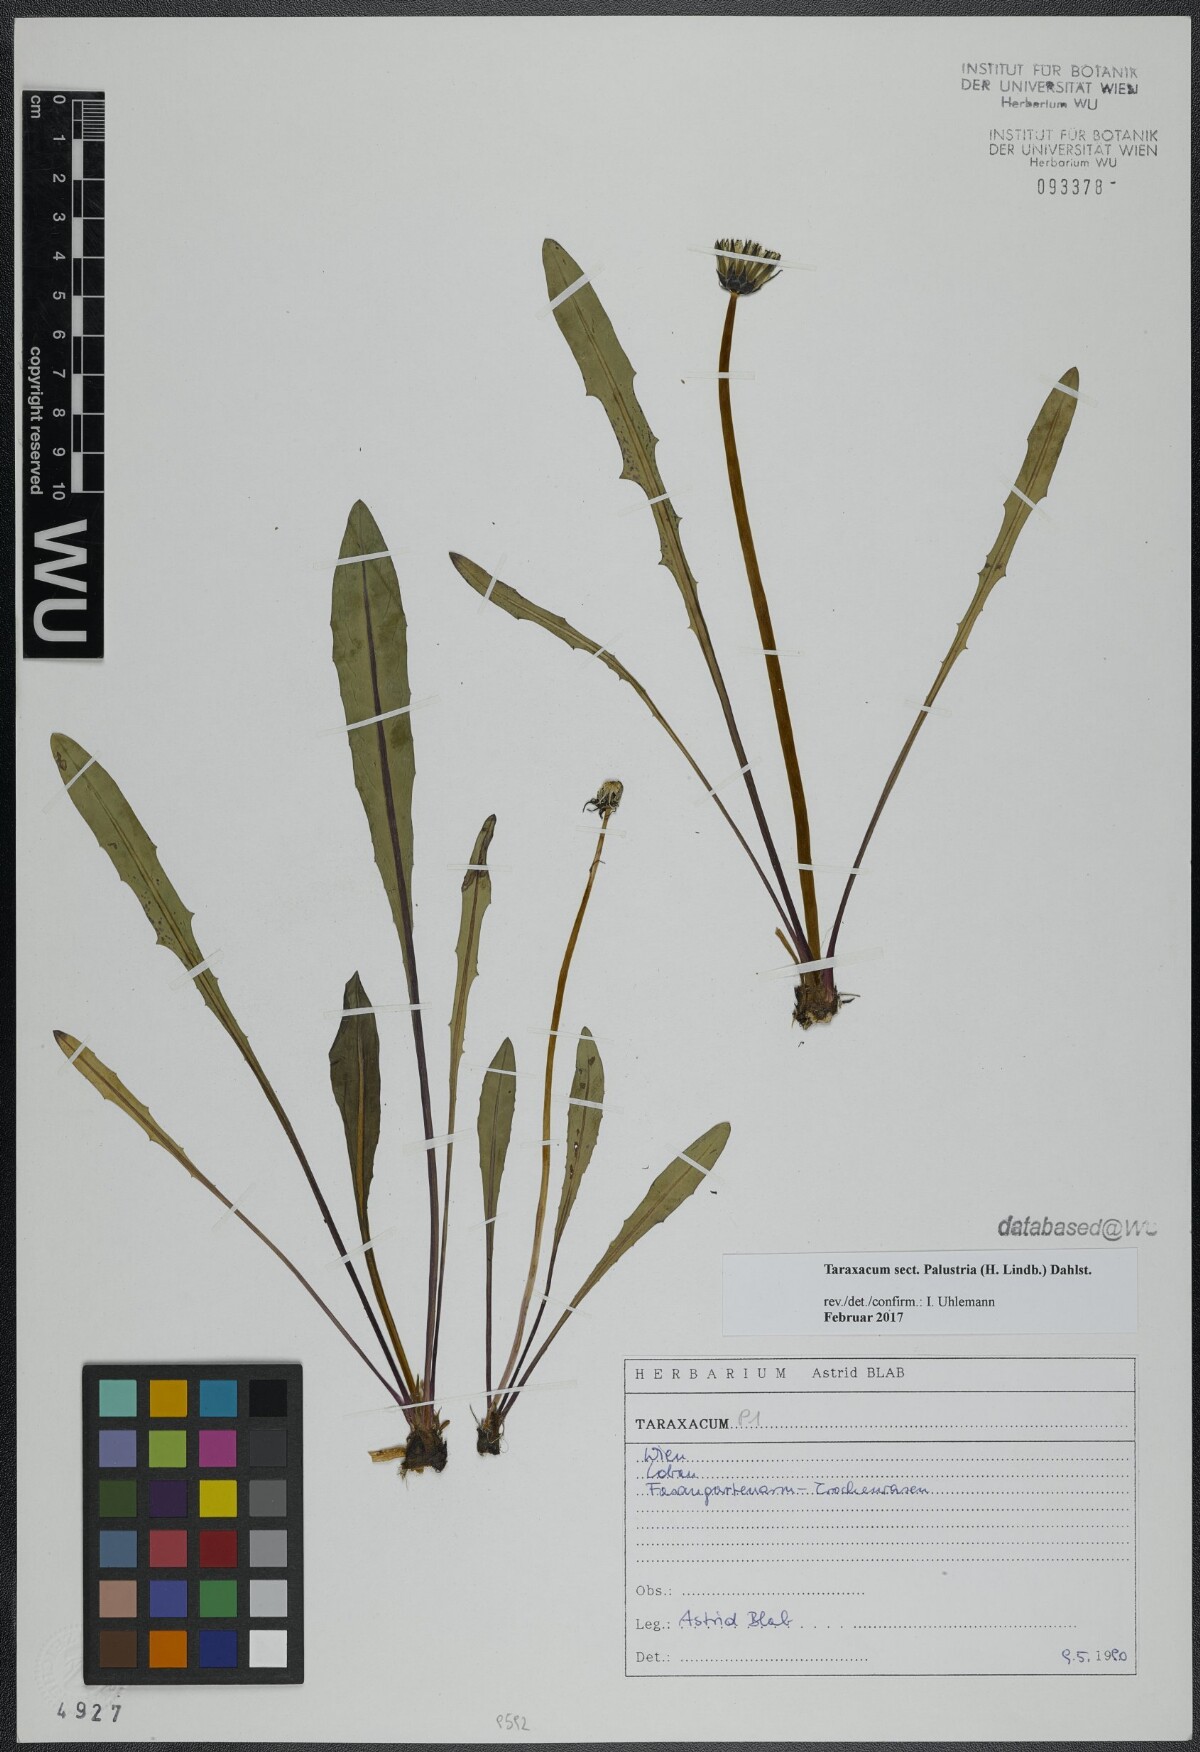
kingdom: Plantae
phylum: Tracheophyta
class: Magnoliopsida
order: Asterales
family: Asteraceae
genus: Taraxacum
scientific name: Taraxacum
